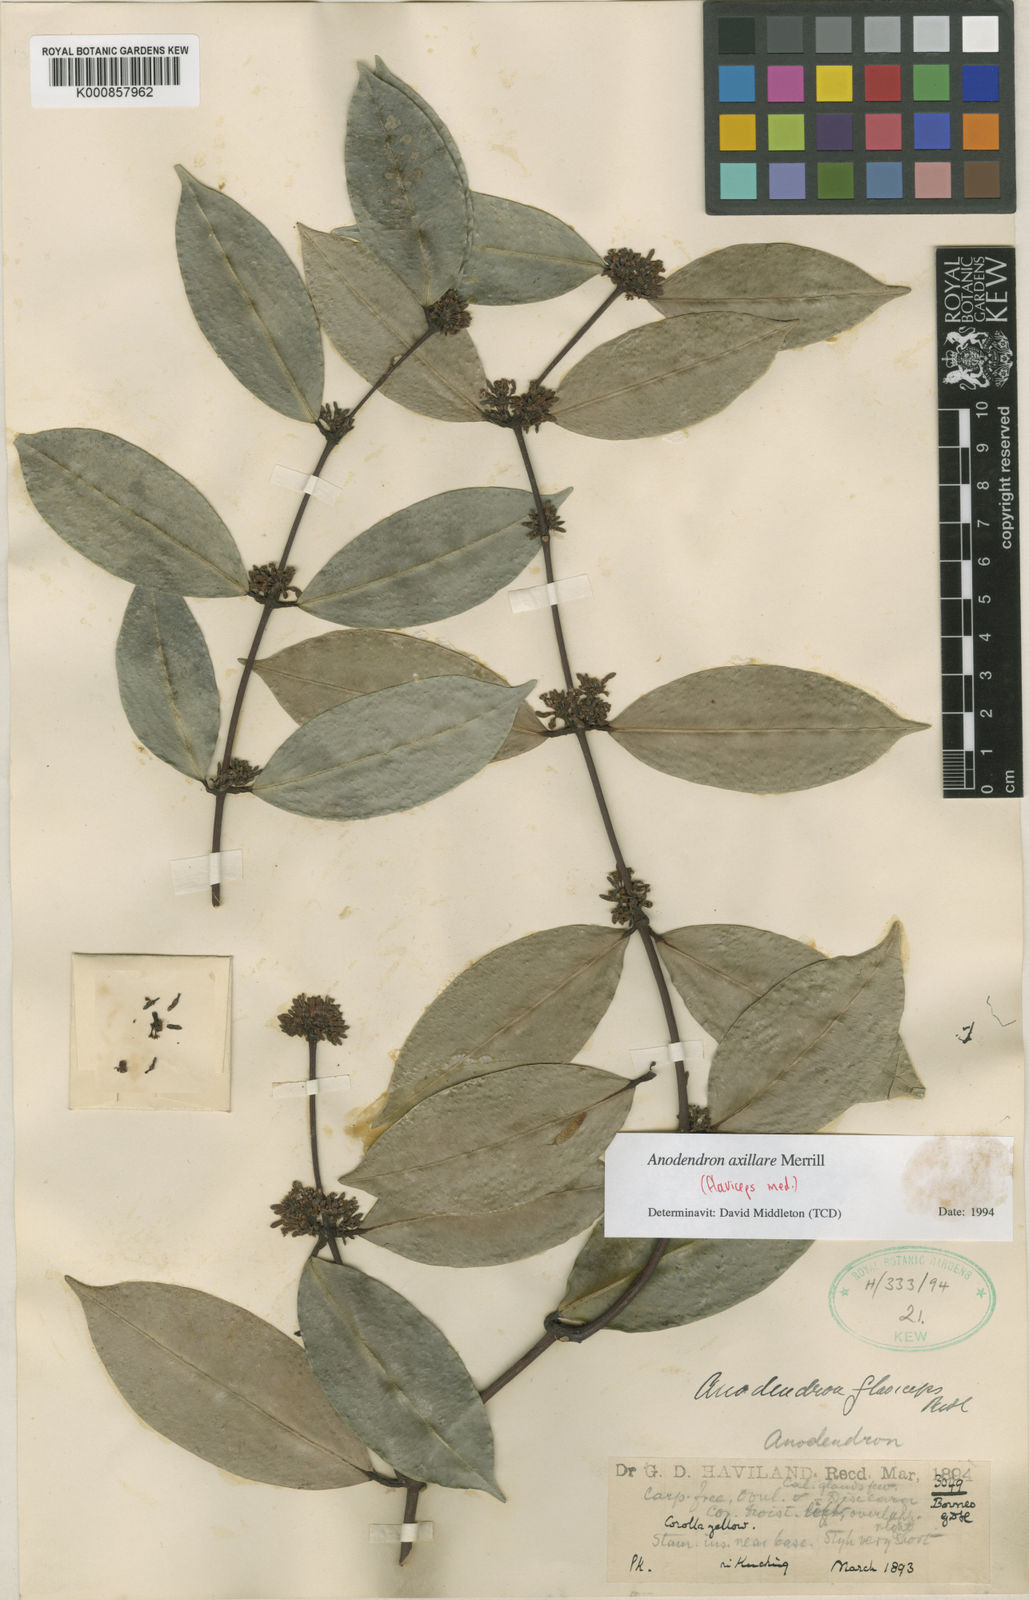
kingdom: Plantae
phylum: Tracheophyta
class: Magnoliopsida
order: Gentianales
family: Apocynaceae
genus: Anodendron
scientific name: Anodendron axillare
